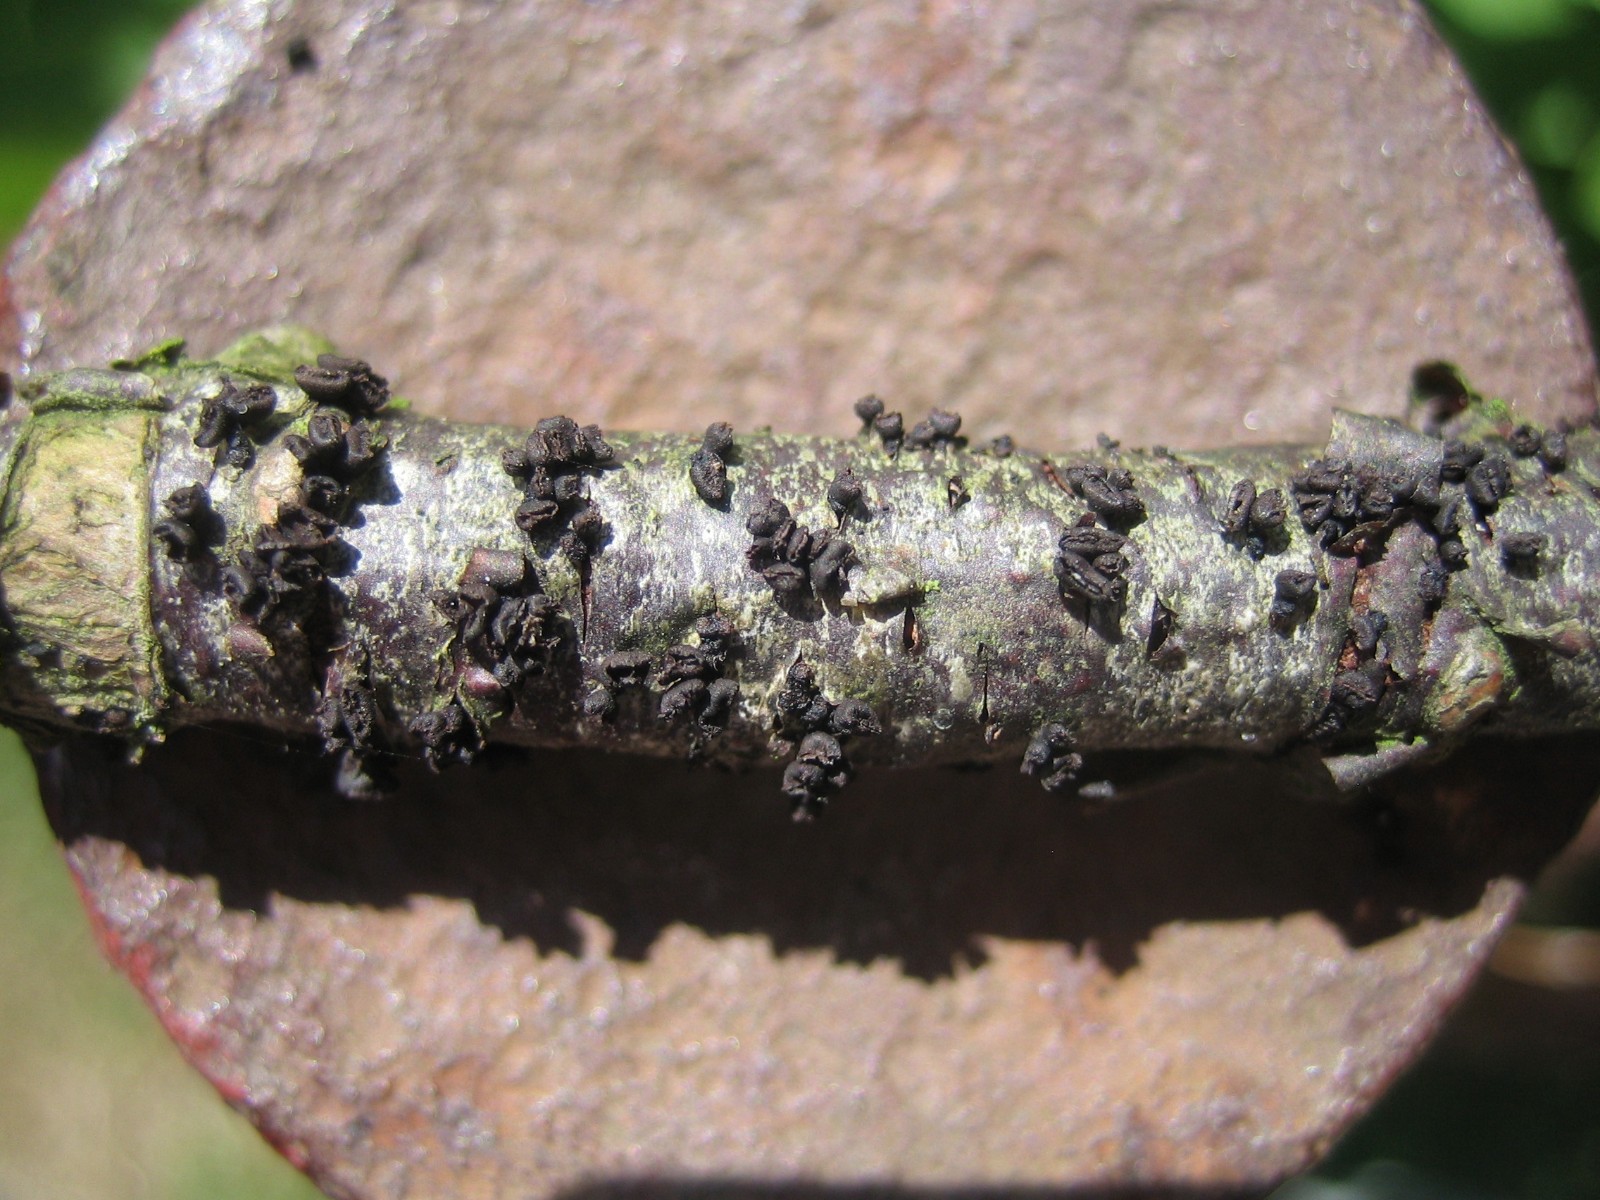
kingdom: Fungi
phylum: Ascomycota
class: Leotiomycetes
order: Helotiales
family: Godroniaceae
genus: Godronia
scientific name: Godronia ribis
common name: ribs-urneskive
